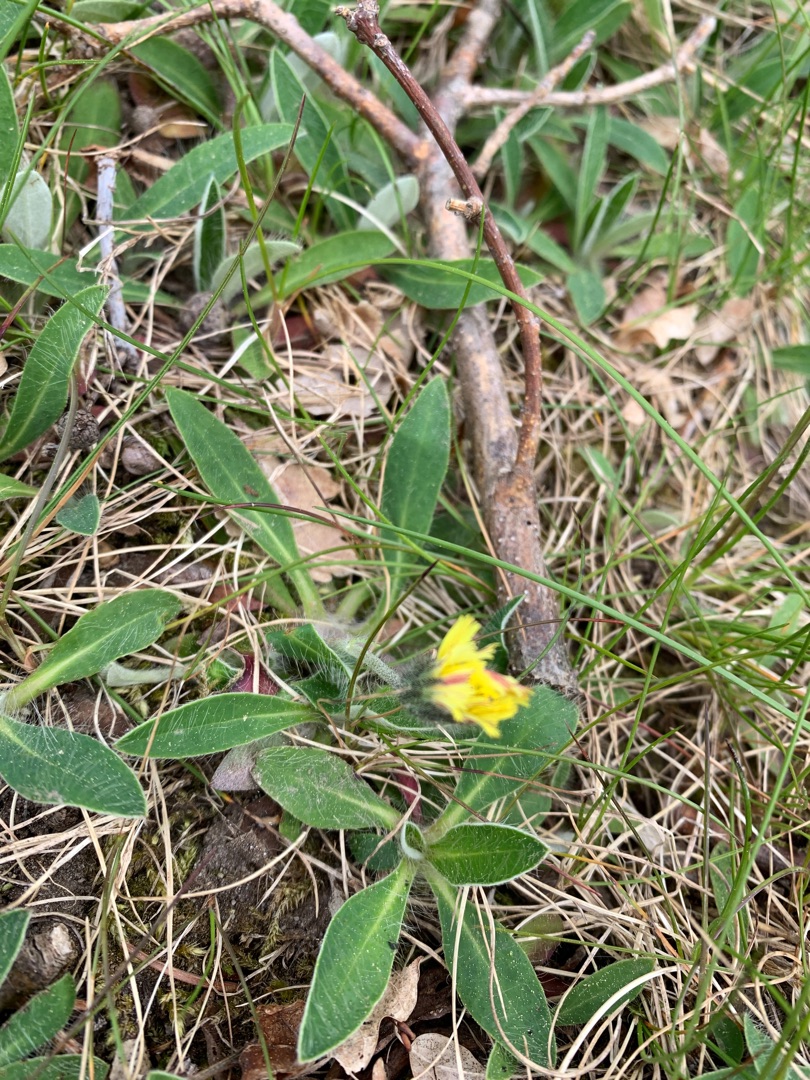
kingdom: Plantae
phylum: Tracheophyta
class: Magnoliopsida
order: Asterales
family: Asteraceae
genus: Pilosella
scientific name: Pilosella officinarum
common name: Håret høgeurt
